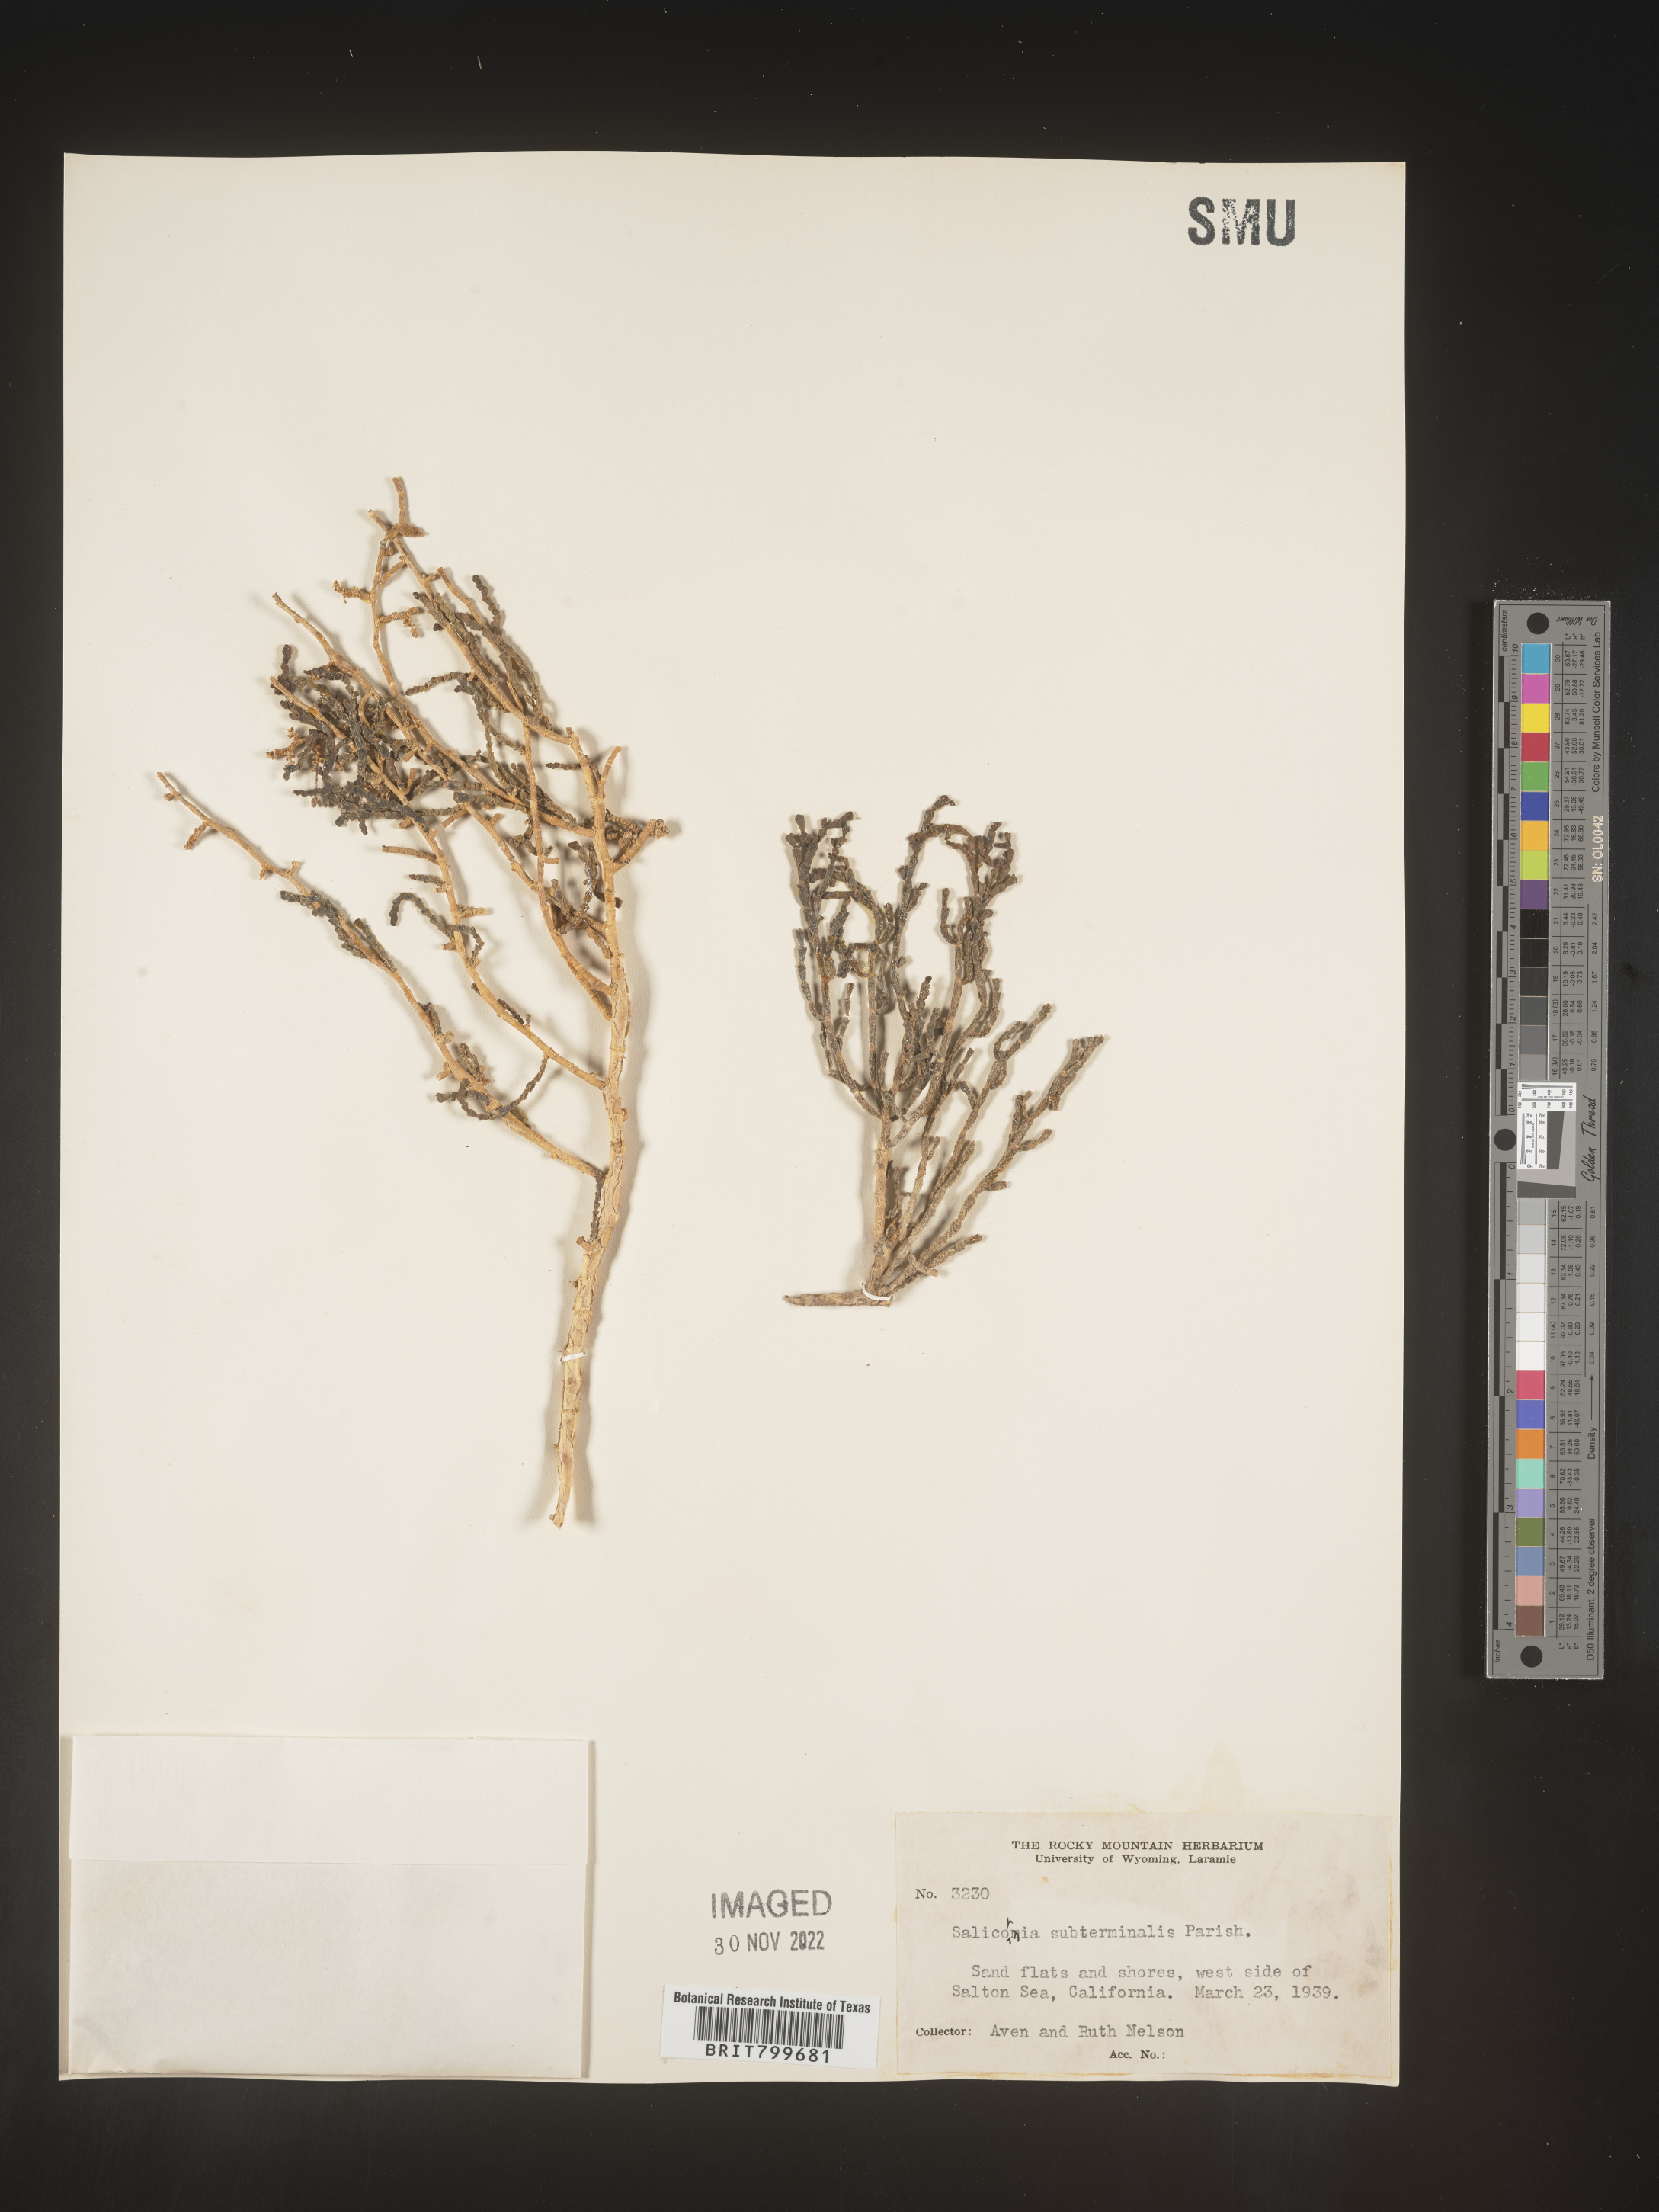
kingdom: Plantae
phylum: Tracheophyta
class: Magnoliopsida
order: Caryophyllales
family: Amaranthaceae
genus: Salicornia
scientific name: Salicornia
